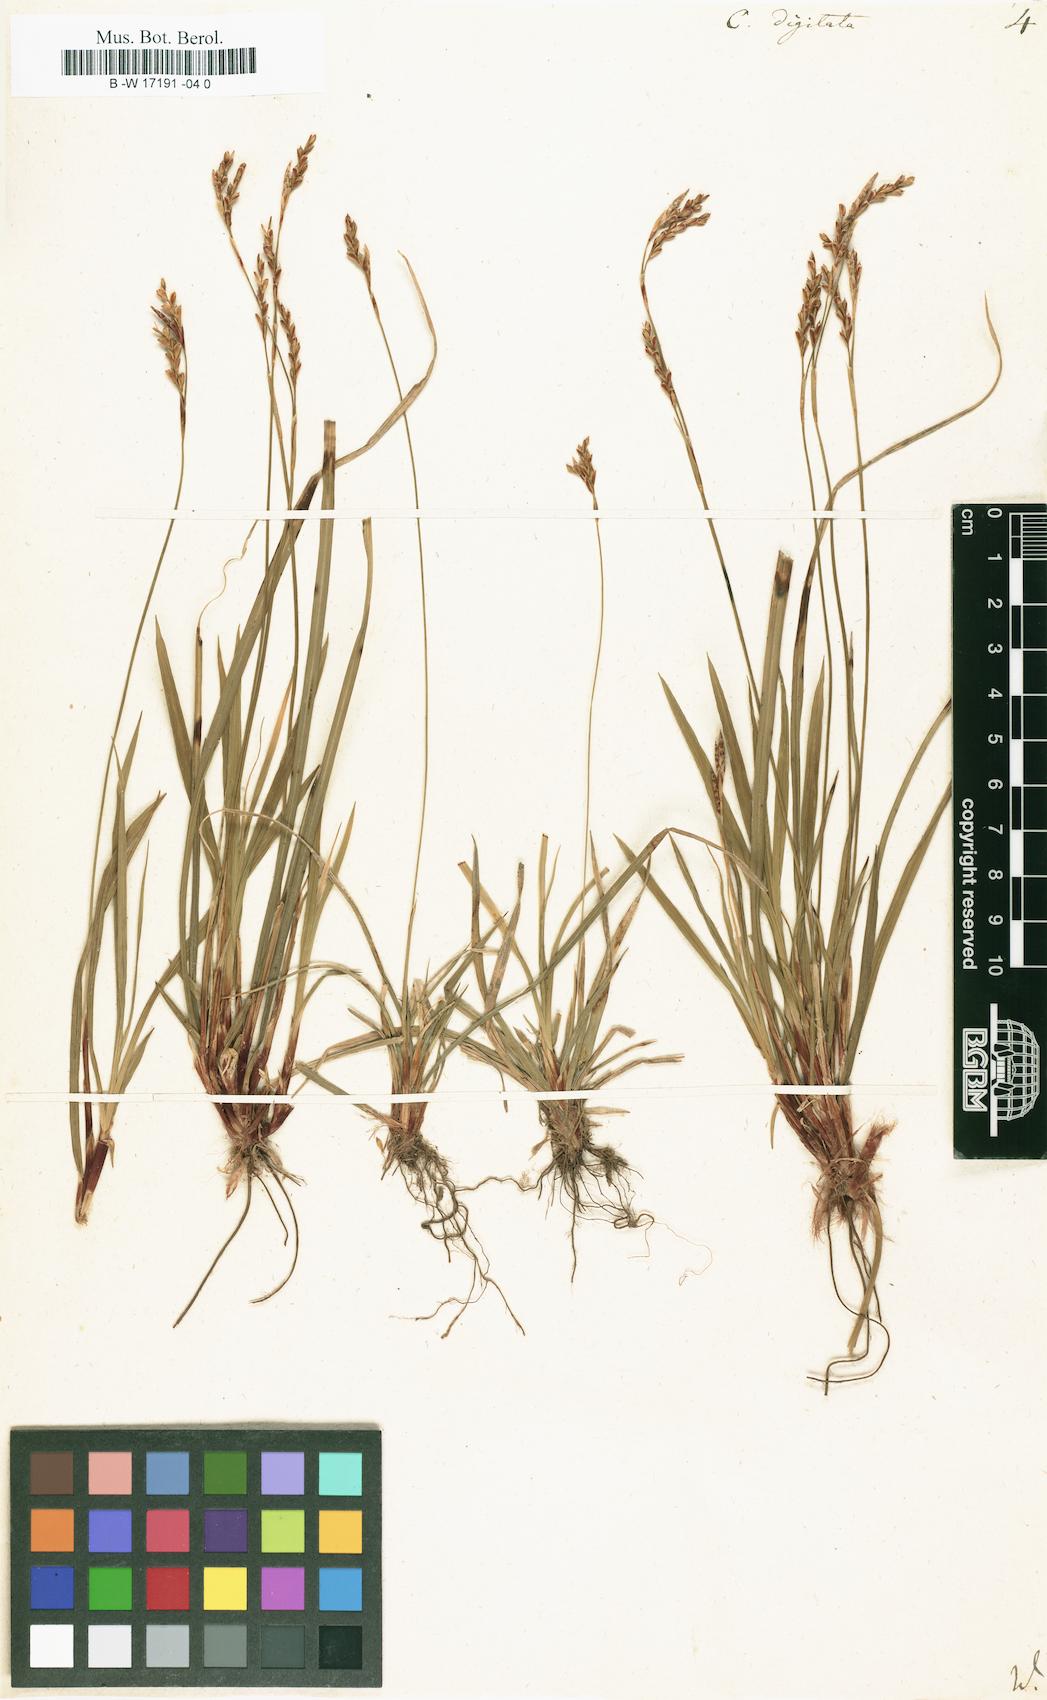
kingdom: Plantae
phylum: Tracheophyta
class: Liliopsida
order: Poales
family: Cyperaceae
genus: Carex
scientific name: Carex digitata
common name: Fingered sedge
